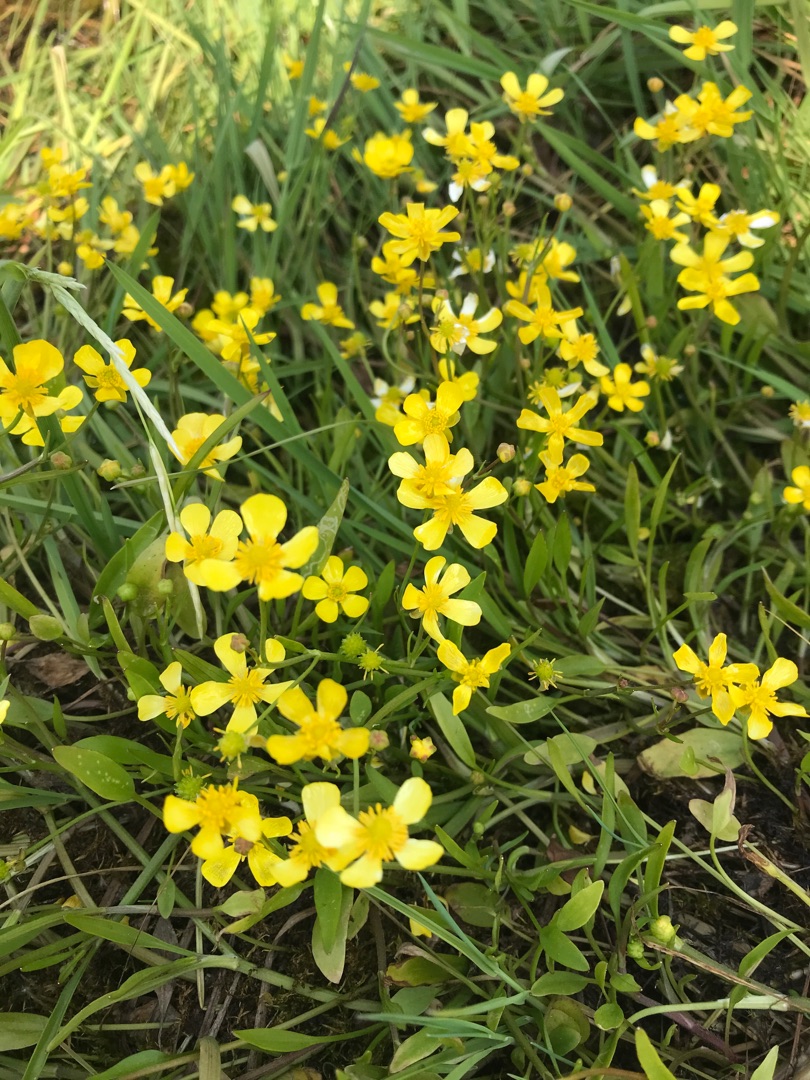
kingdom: Plantae
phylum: Tracheophyta
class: Magnoliopsida
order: Ranunculales
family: Ranunculaceae
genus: Ranunculus
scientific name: Ranunculus flammula
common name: Kær-ranunkel
